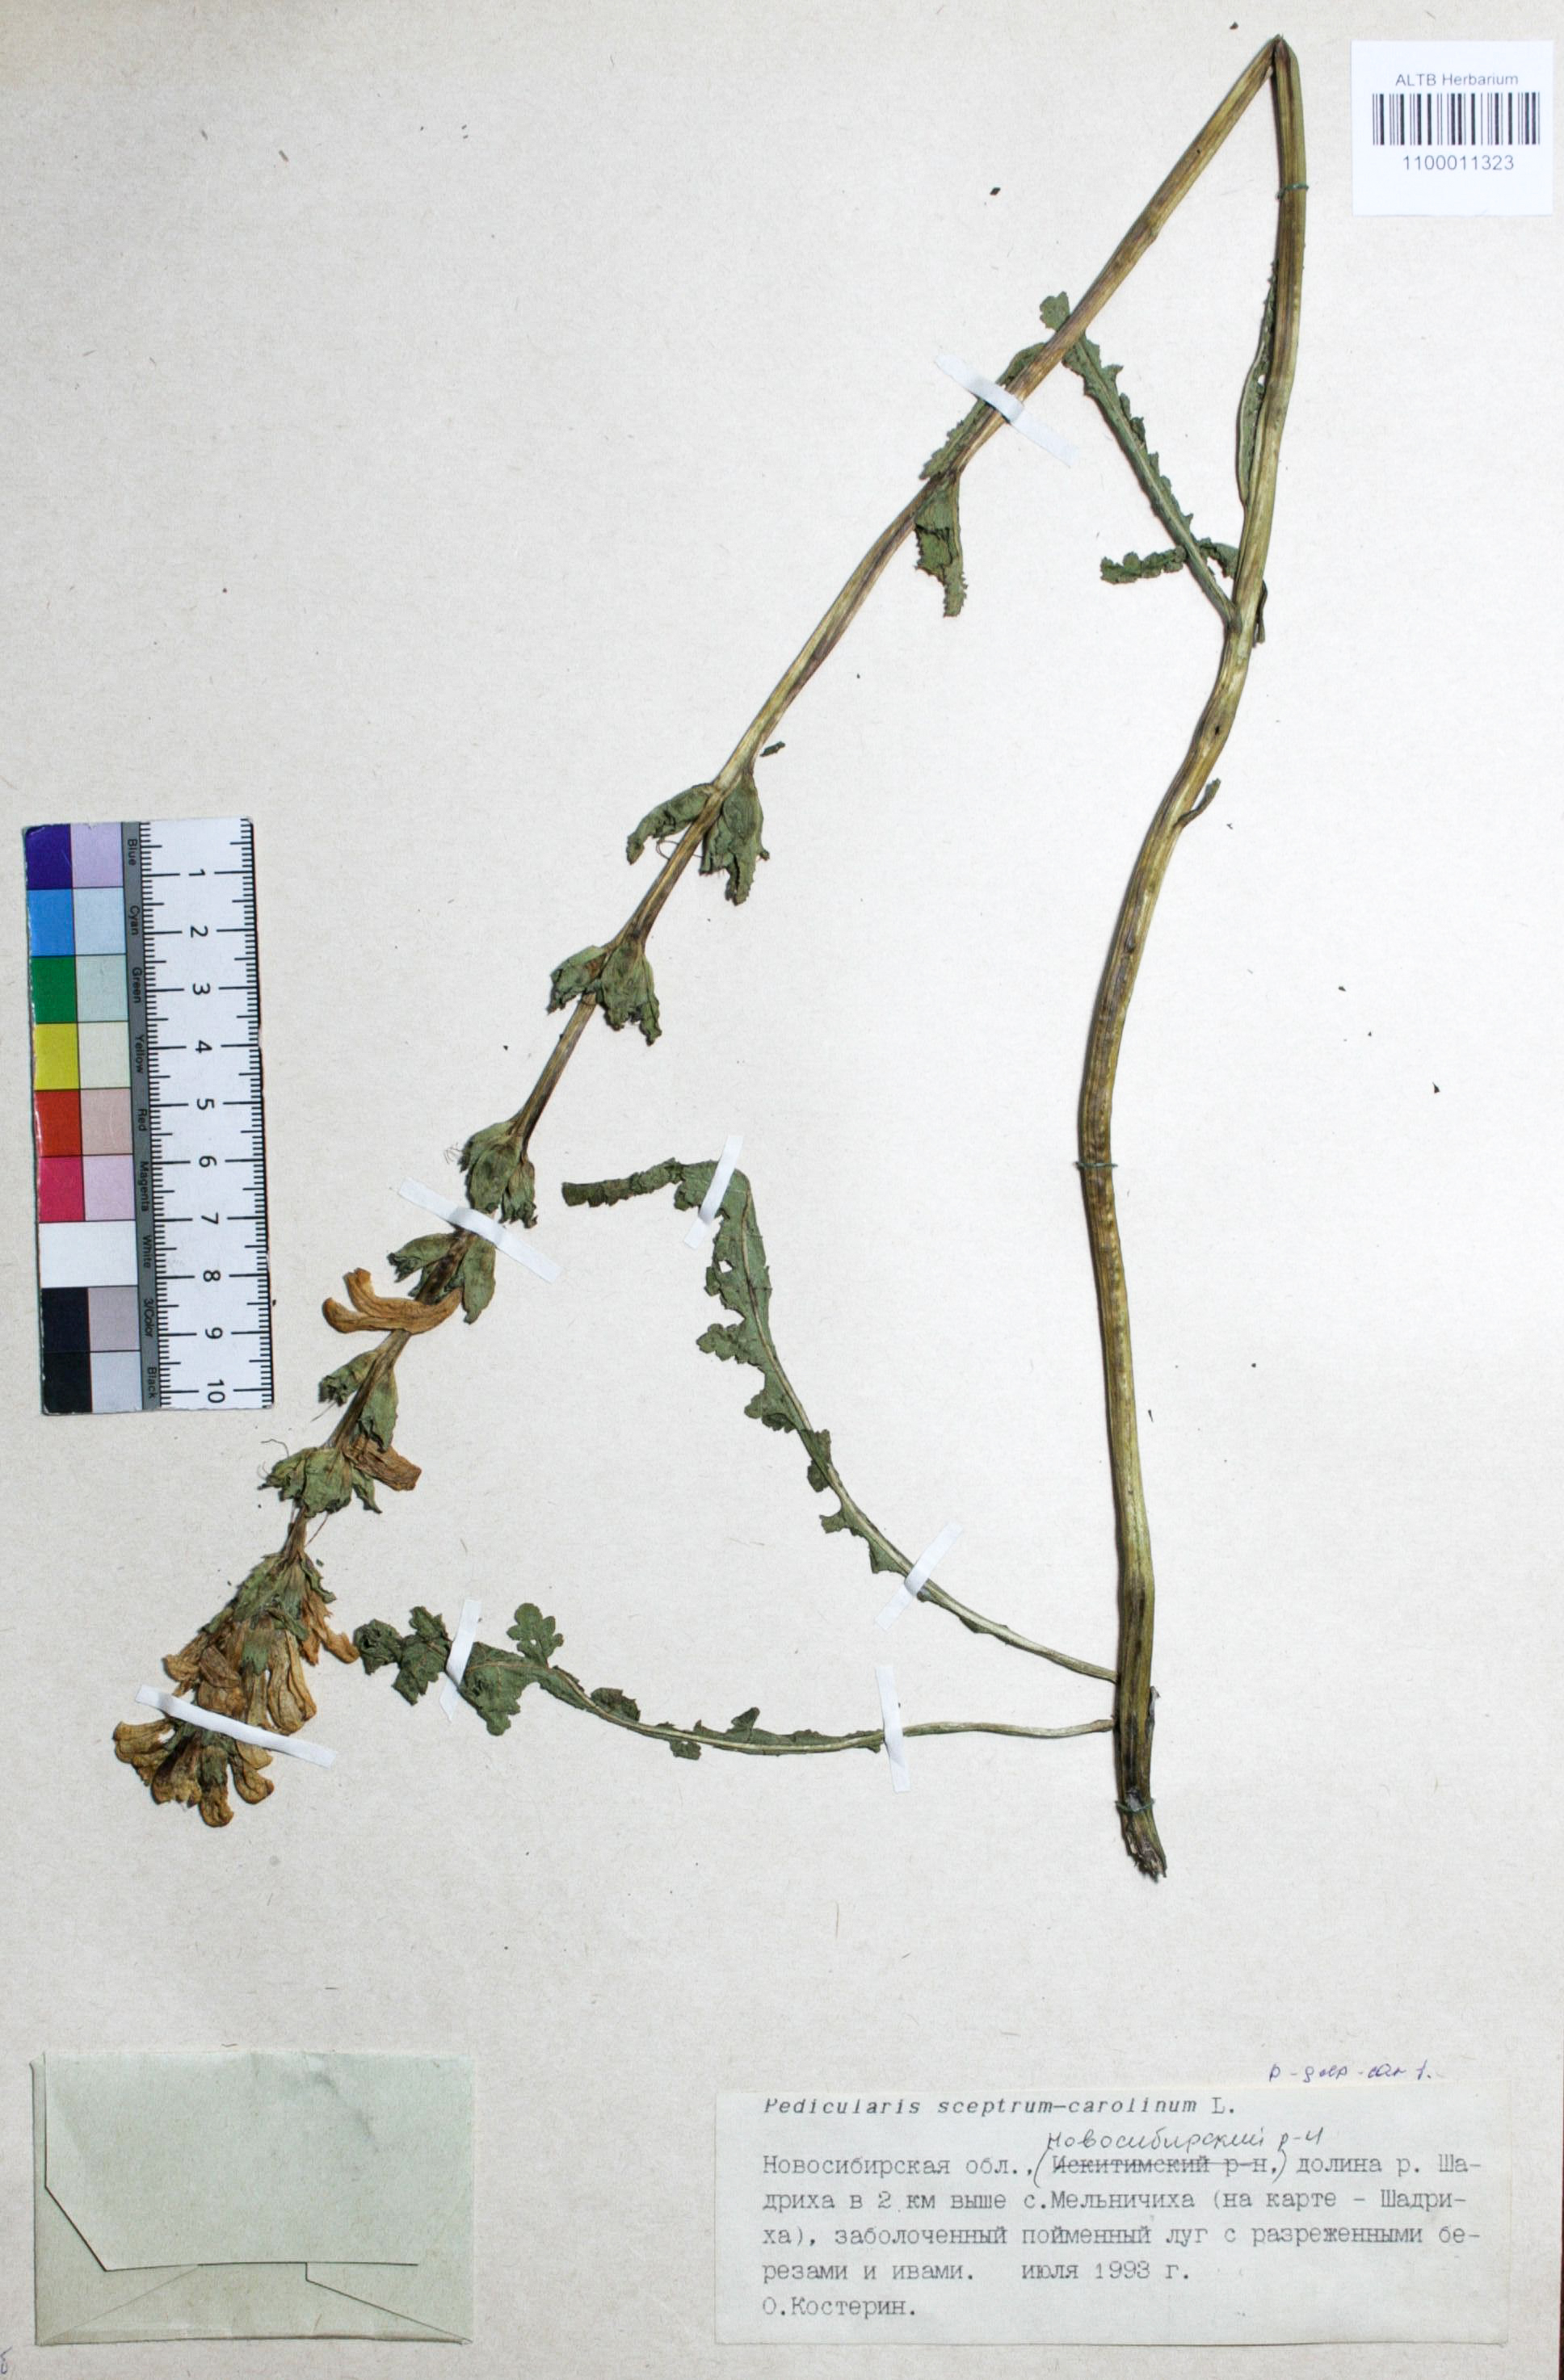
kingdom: Plantae
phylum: Tracheophyta
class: Magnoliopsida
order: Lamiales
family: Orobanchaceae
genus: Pedicularis
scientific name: Pedicularis sceptrum-carolinum
